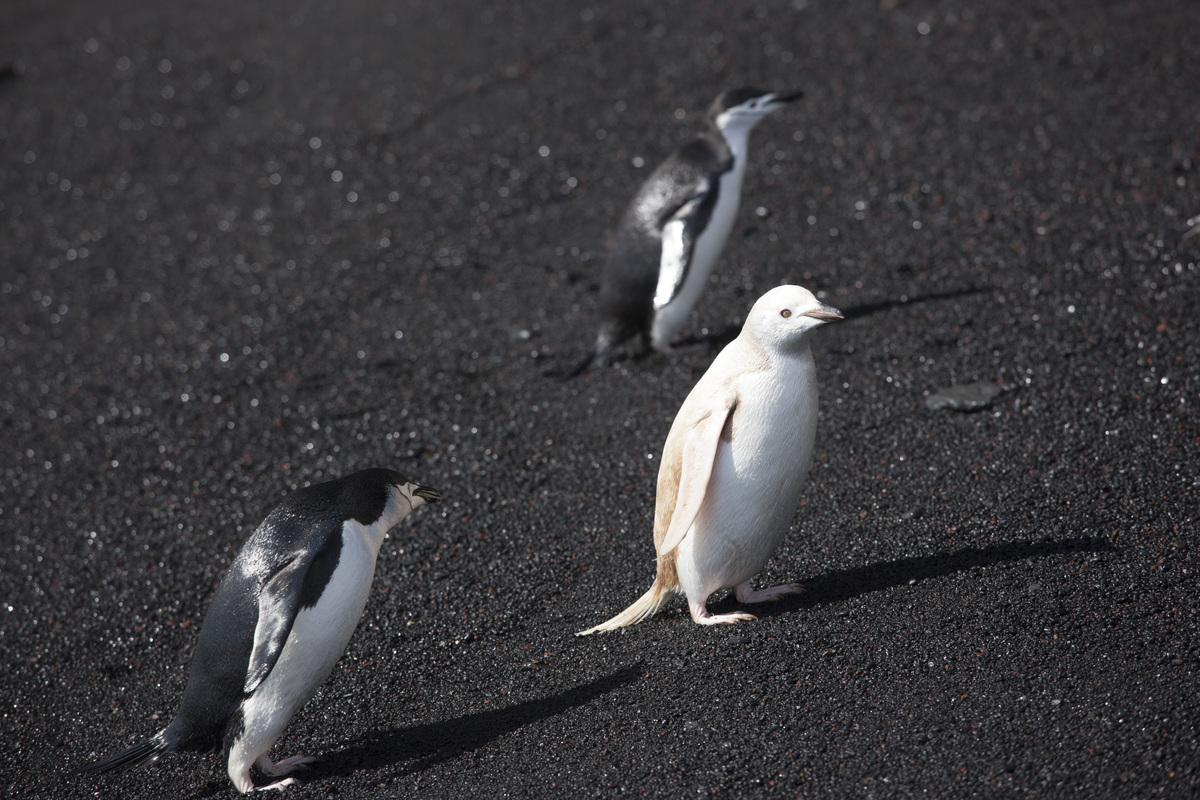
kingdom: Animalia
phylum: Chordata
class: Aves
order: Sphenisciformes
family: Spheniscidae
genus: Pygoscelis
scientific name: Pygoscelis antarcticus
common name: Chinstrap penguin
